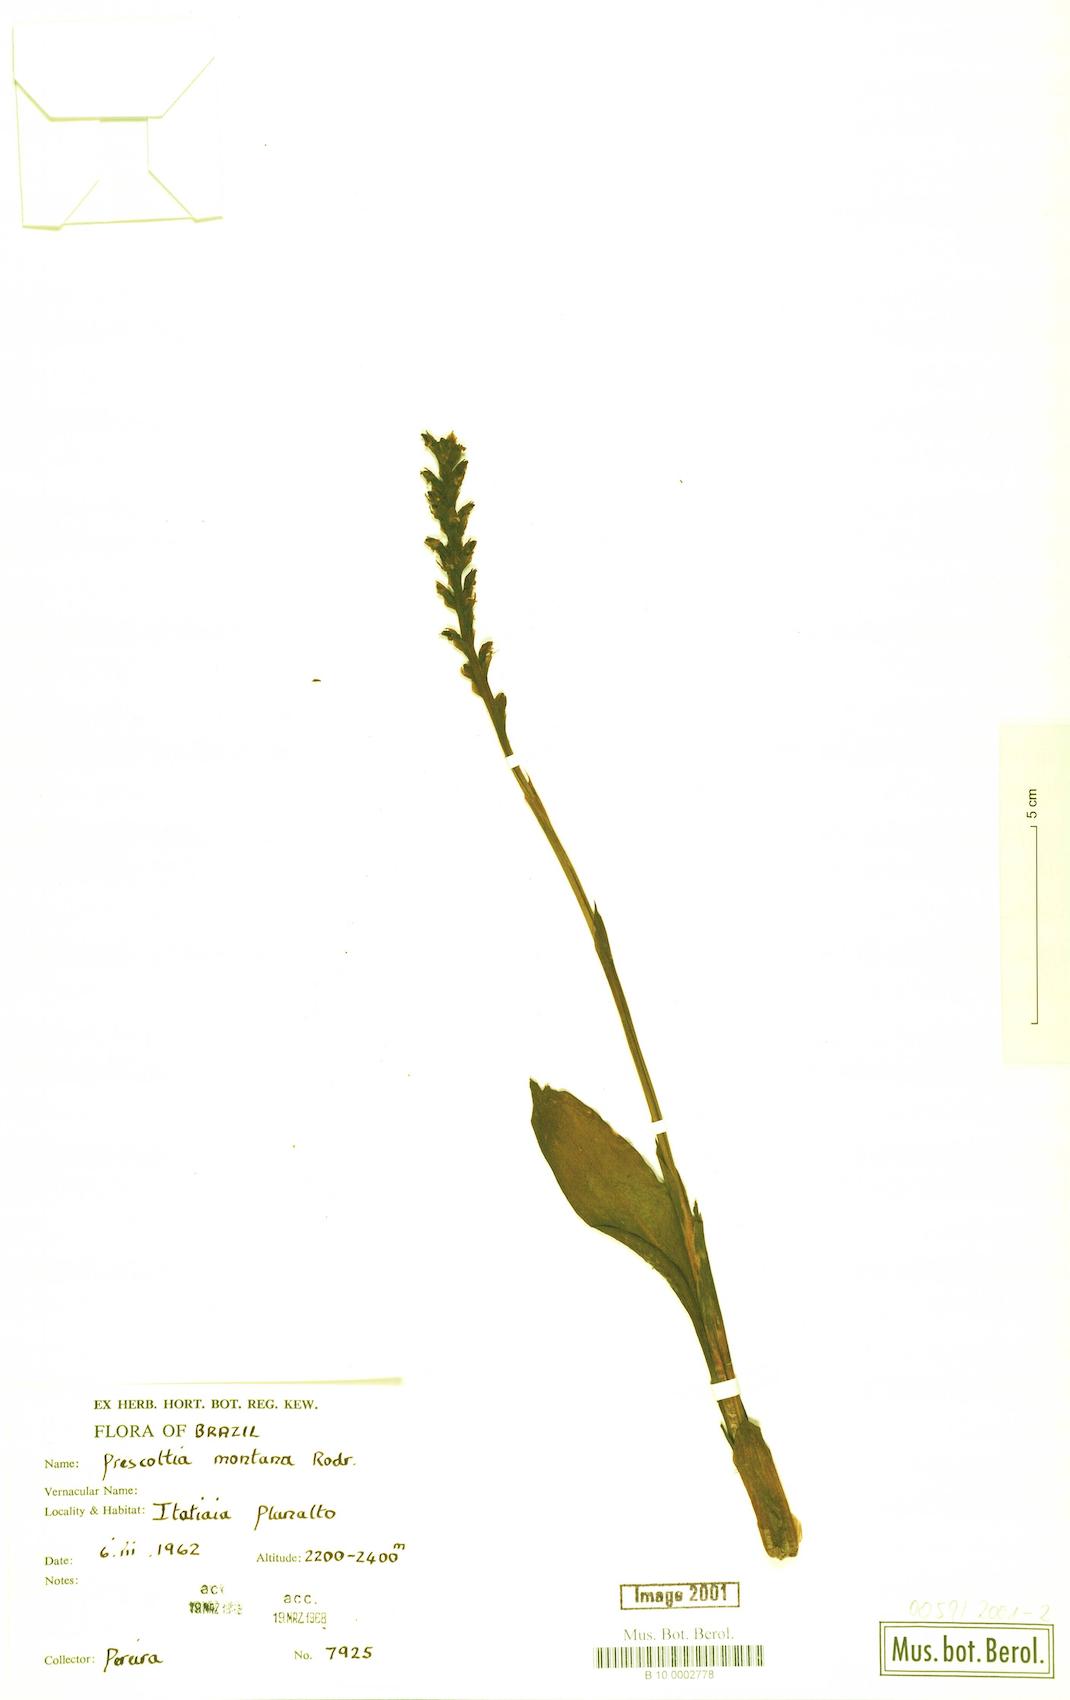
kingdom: Plantae
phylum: Tracheophyta
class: Liliopsida
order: Asparagales
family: Orchidaceae
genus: Prescottia
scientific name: Prescottia montana
